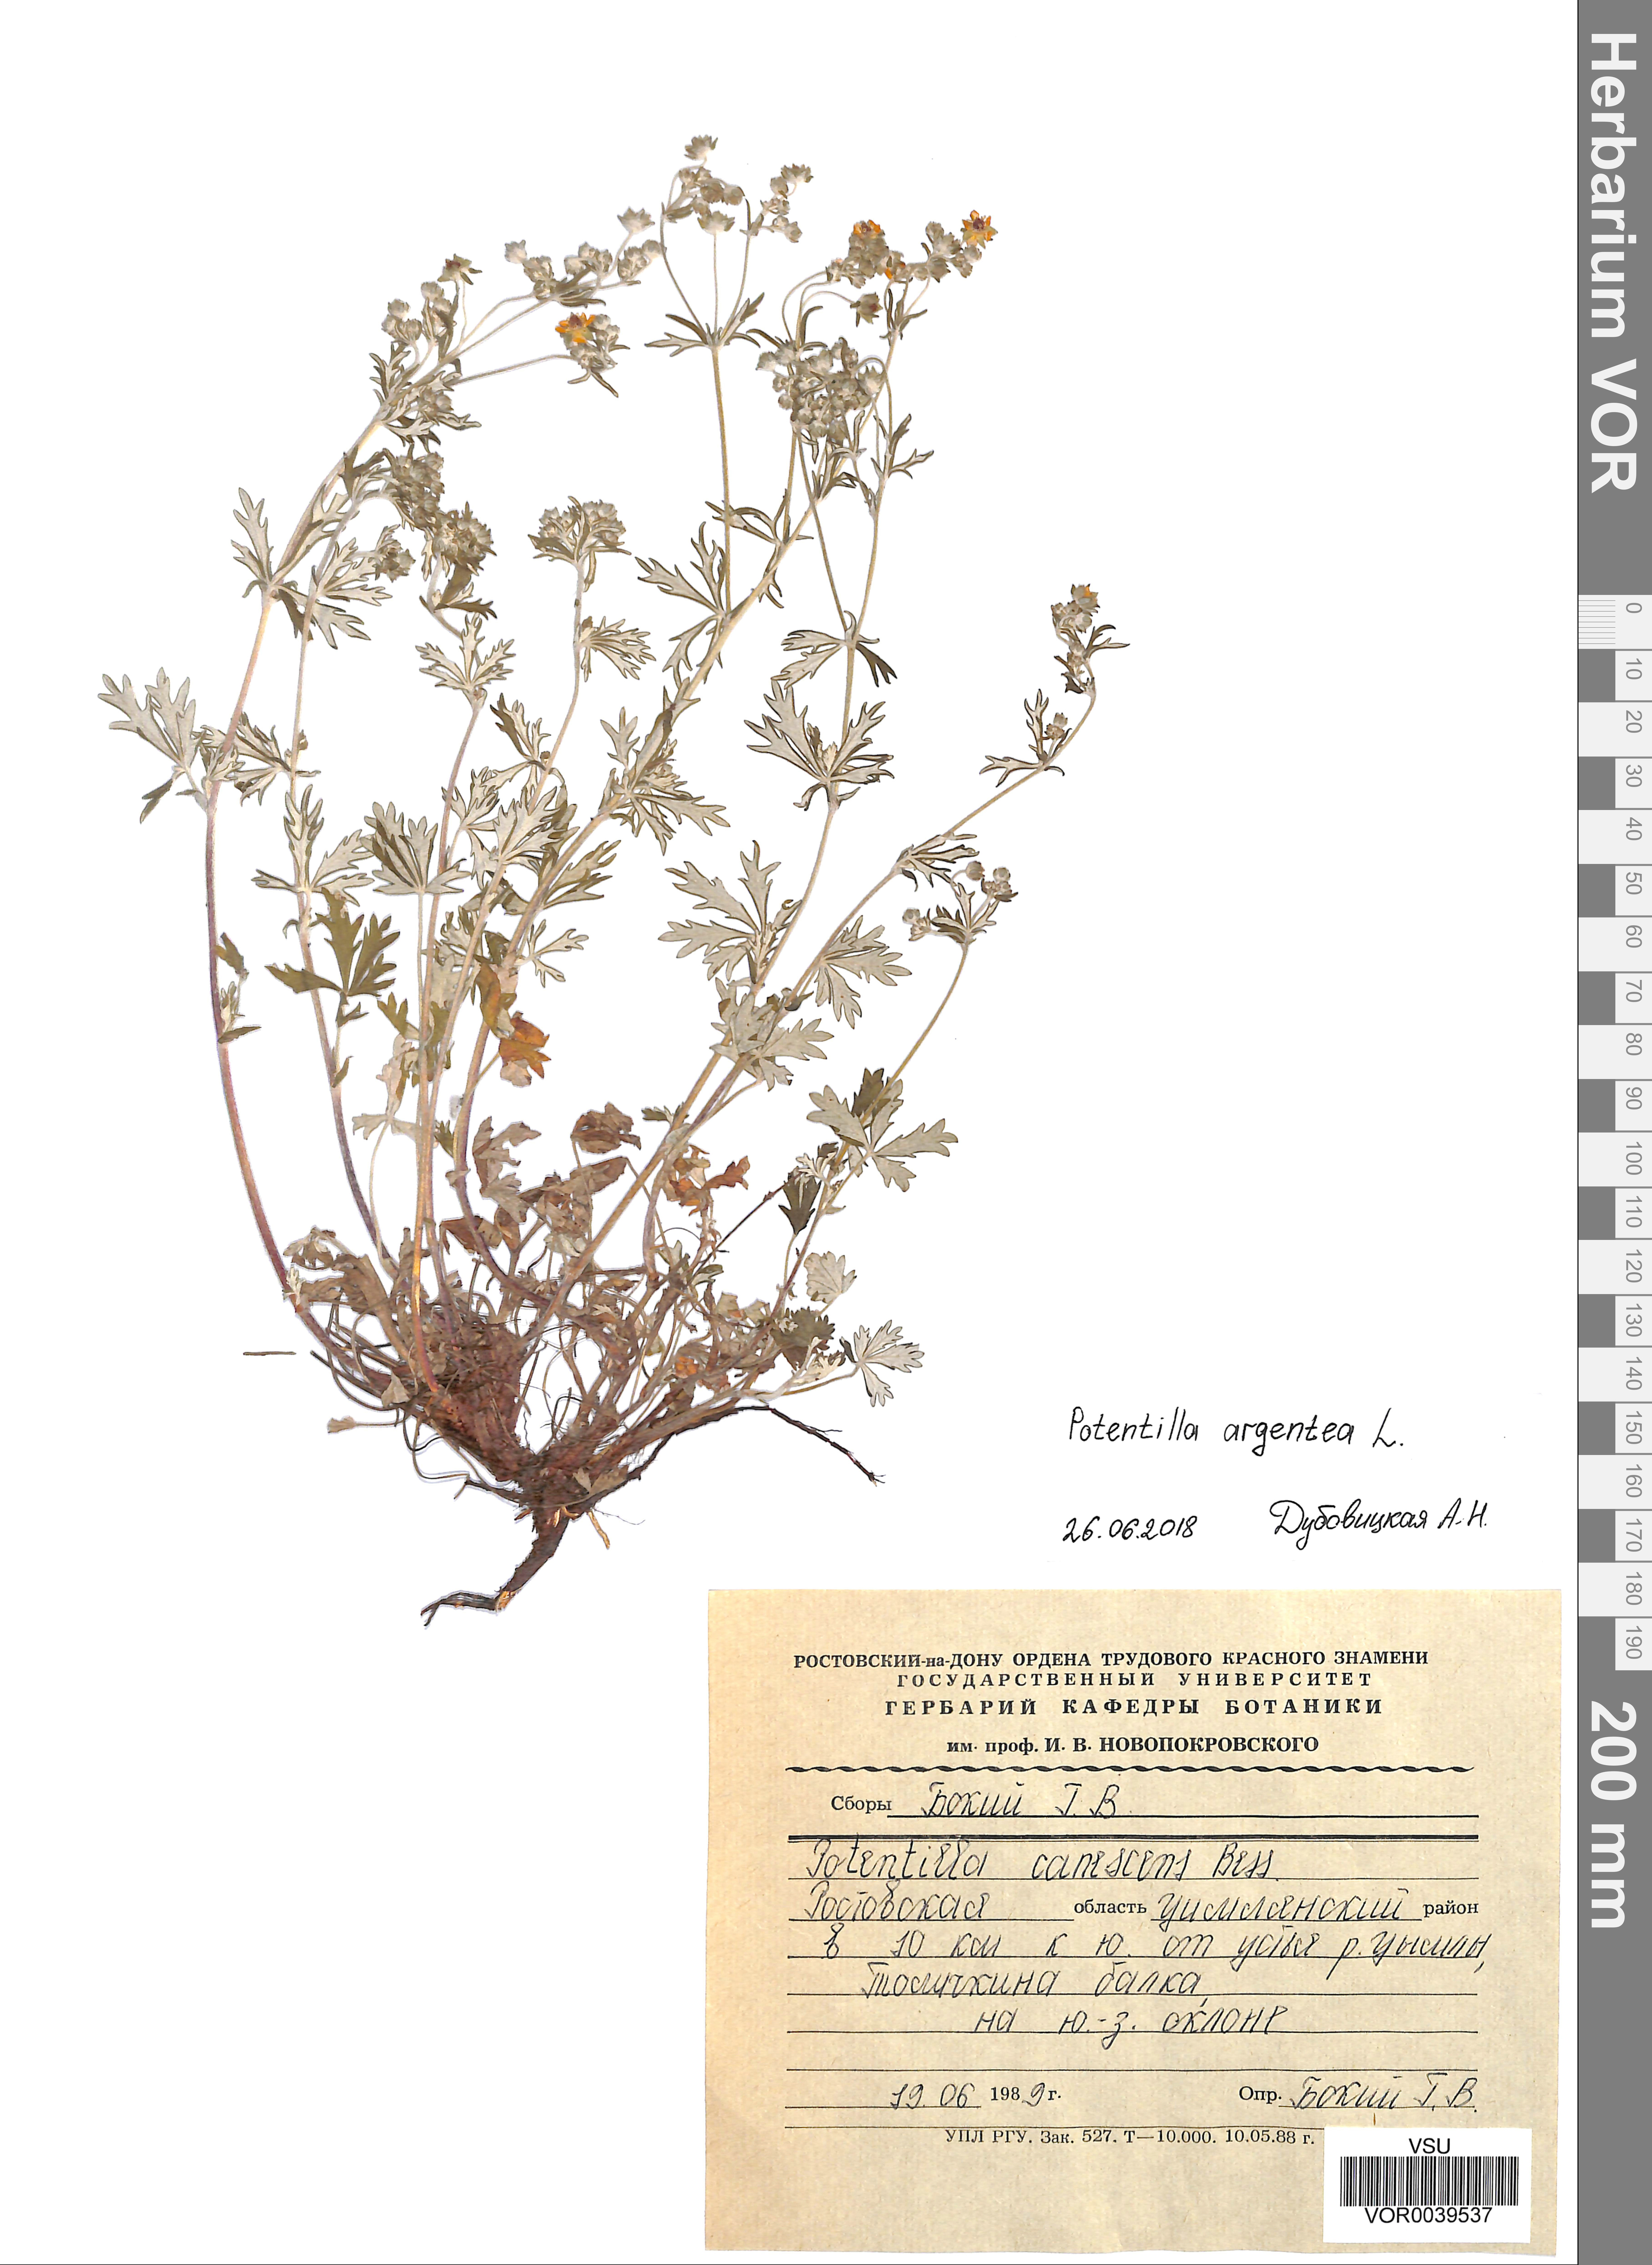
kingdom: Plantae
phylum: Tracheophyta
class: Magnoliopsida
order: Rosales
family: Rosaceae
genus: Potentilla
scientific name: Potentilla argentea
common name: Hoary cinquefoil
